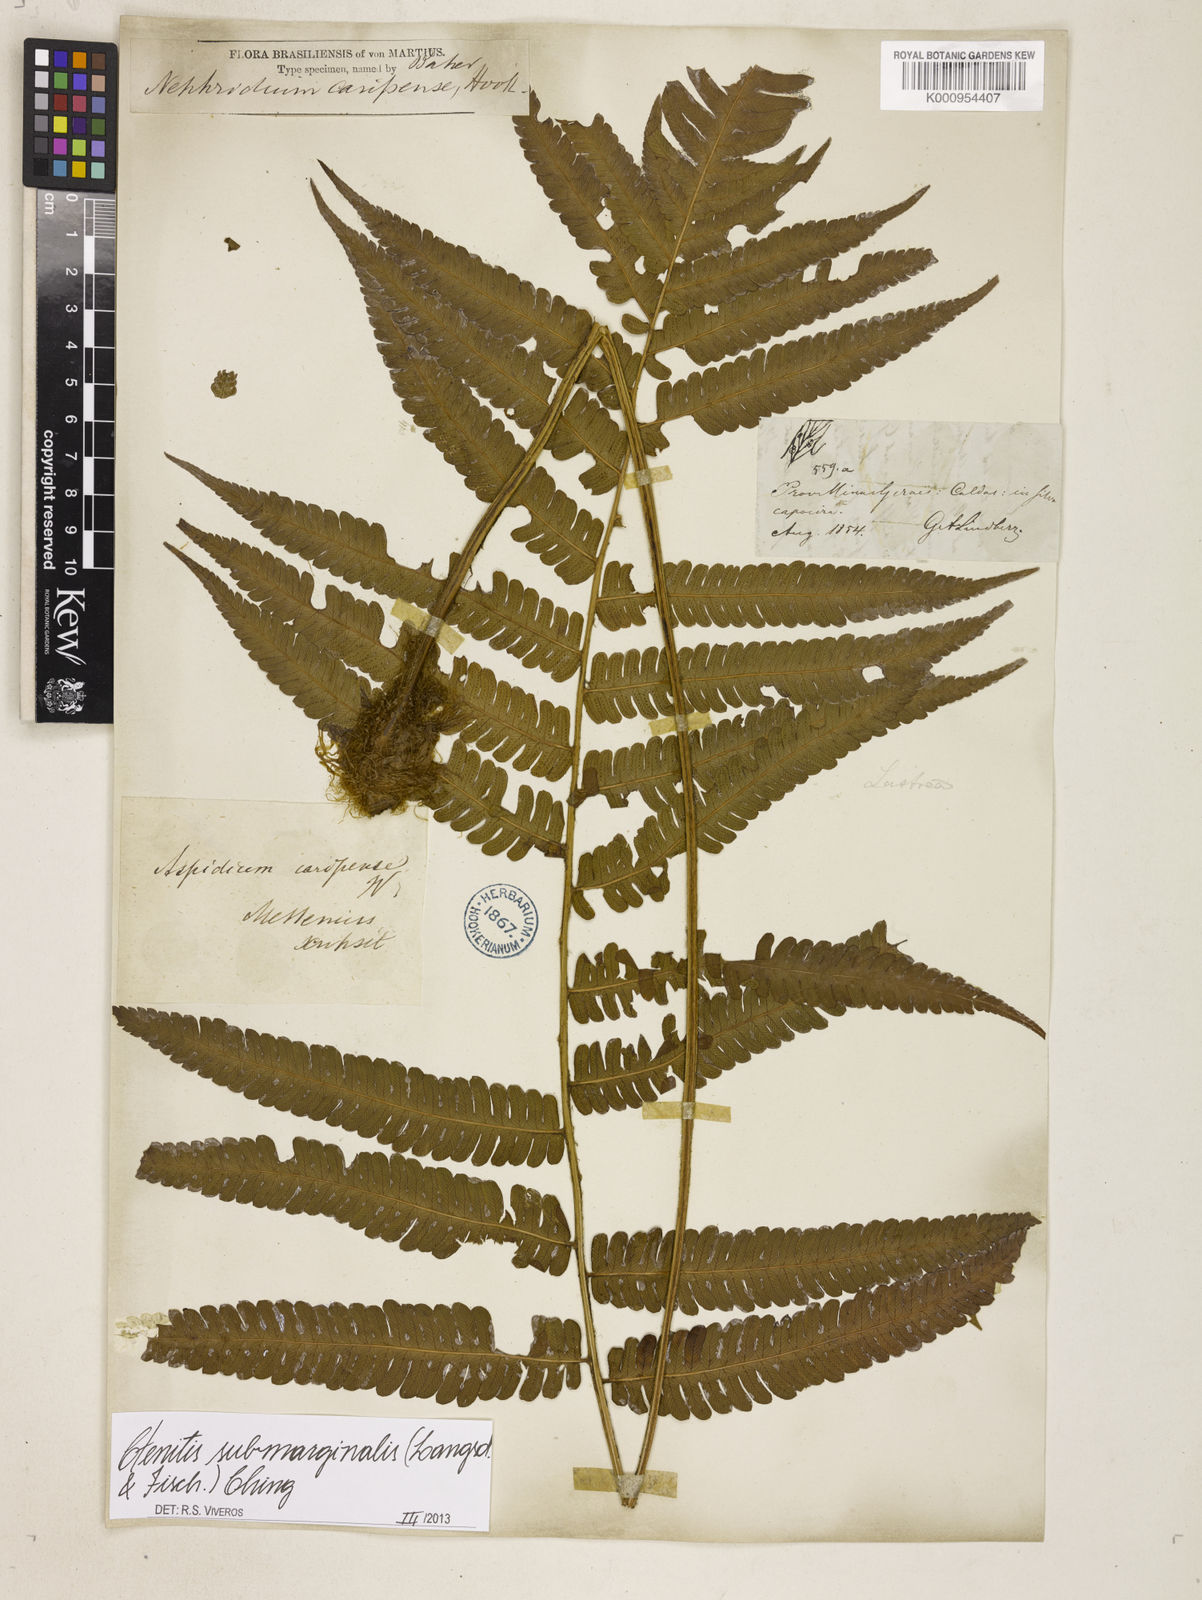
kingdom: Plantae
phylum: Tracheophyta
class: Polypodiopsida
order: Polypodiales
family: Dryopteridaceae
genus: Ctenitis
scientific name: Ctenitis submarginalis
